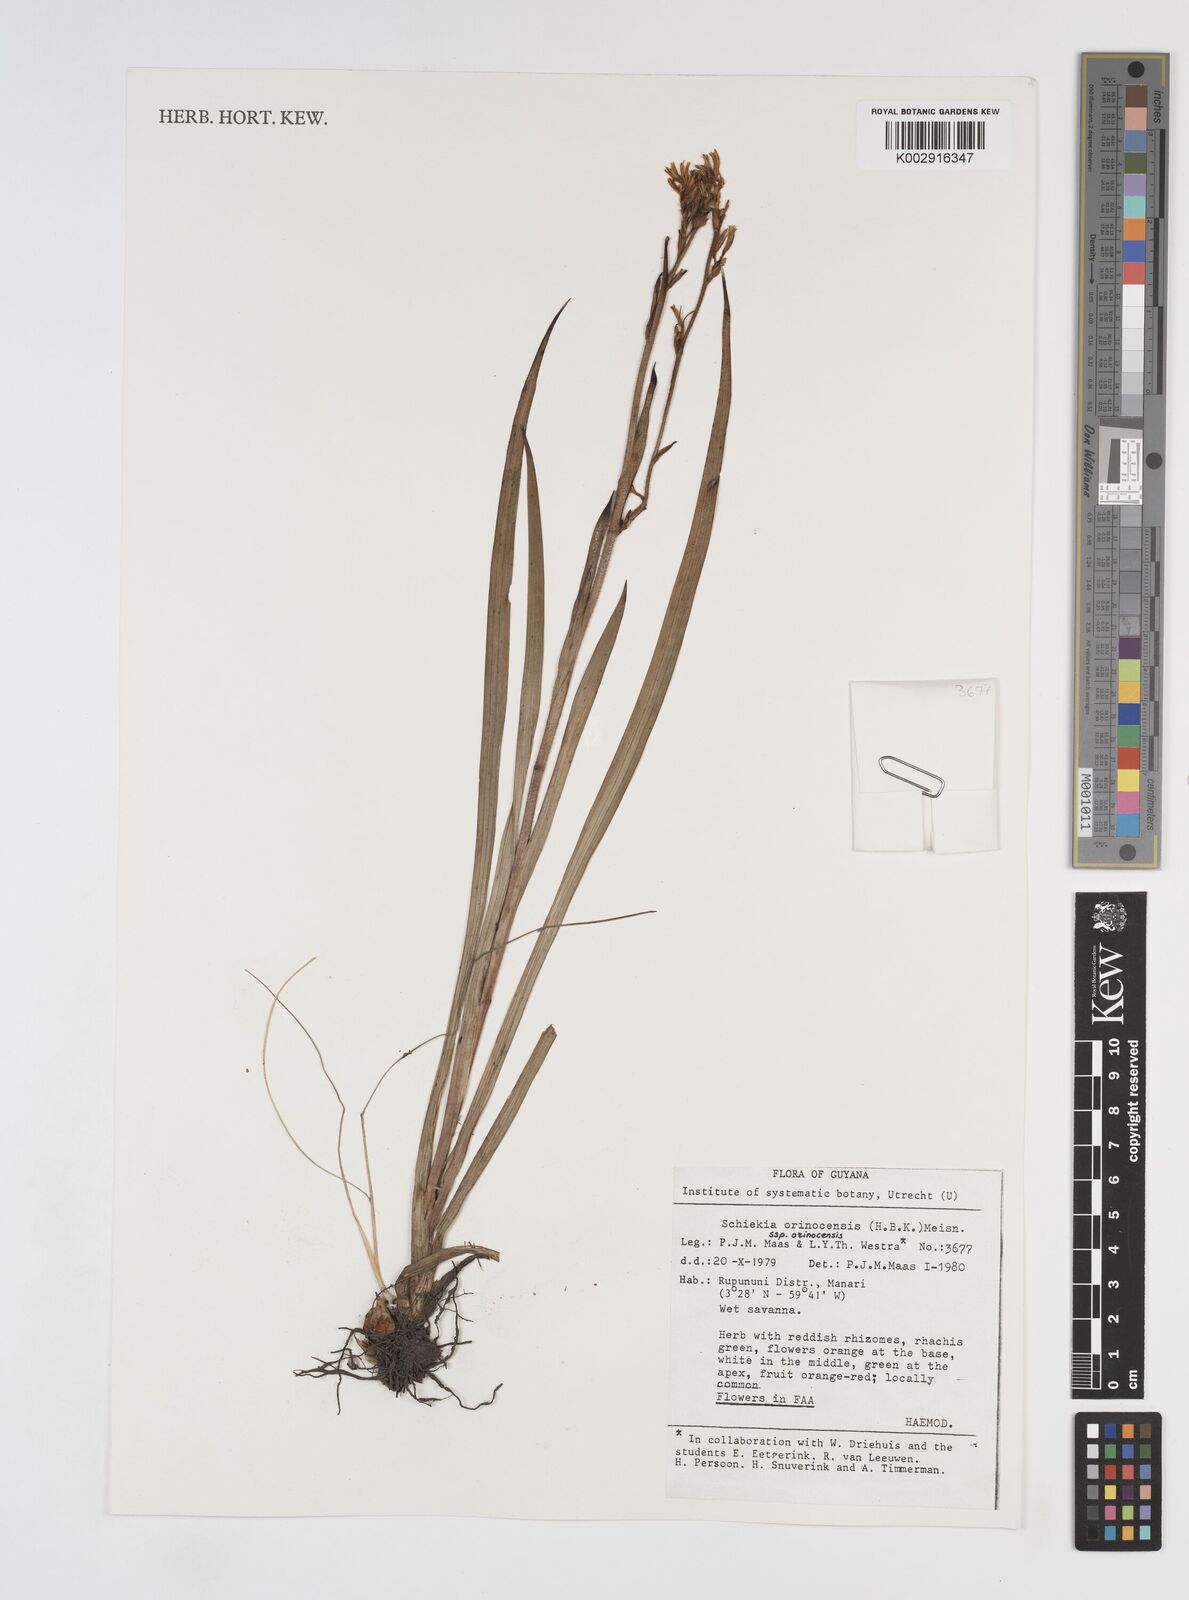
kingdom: Plantae
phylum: Tracheophyta
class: Liliopsida
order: Commelinales
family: Haemodoraceae
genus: Schiekia
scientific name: Schiekia orinocensis
